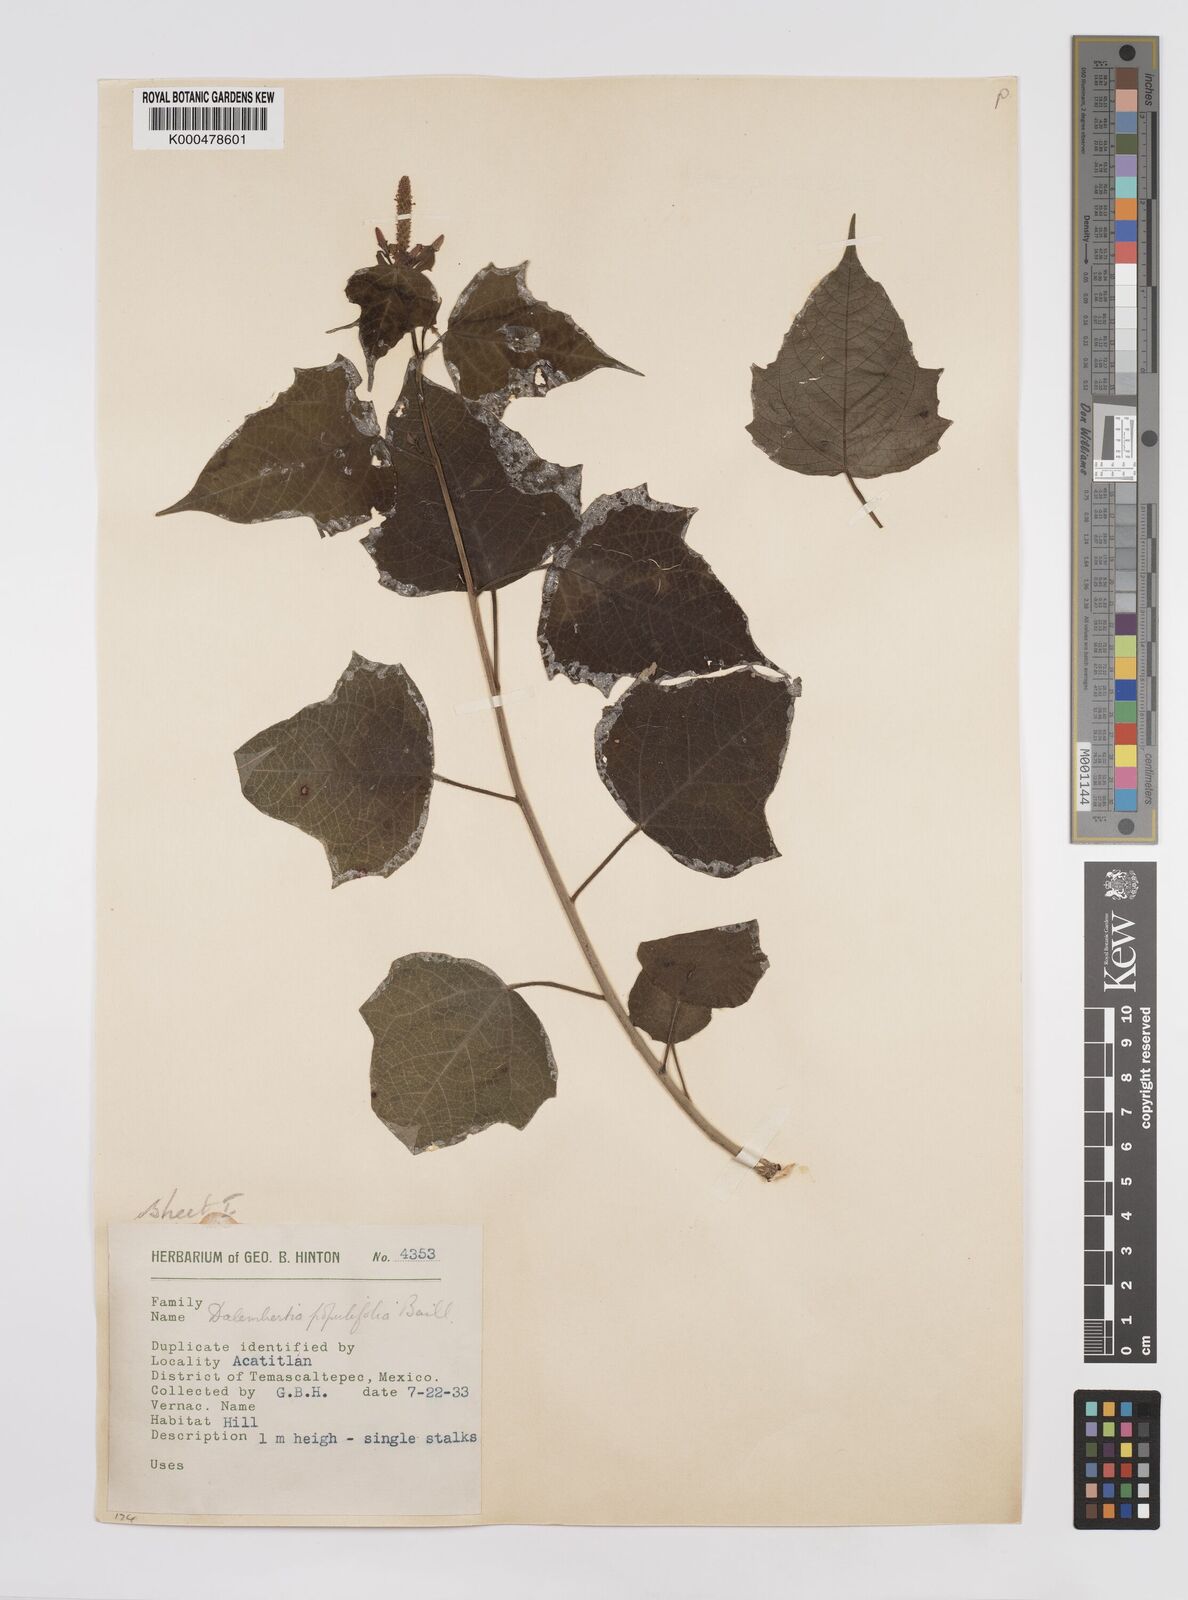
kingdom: Plantae
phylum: Tracheophyta
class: Magnoliopsida
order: Malpighiales
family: Euphorbiaceae
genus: Dalembertia
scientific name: Dalembertia populifolia
